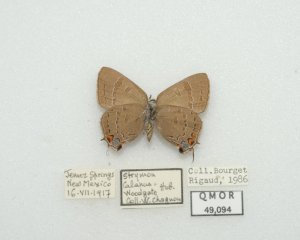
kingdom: Animalia
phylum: Arthropoda
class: Insecta
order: Lepidoptera
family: Lycaenidae
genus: Satyrium
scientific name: Satyrium calanus
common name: Banded Hairstreak
